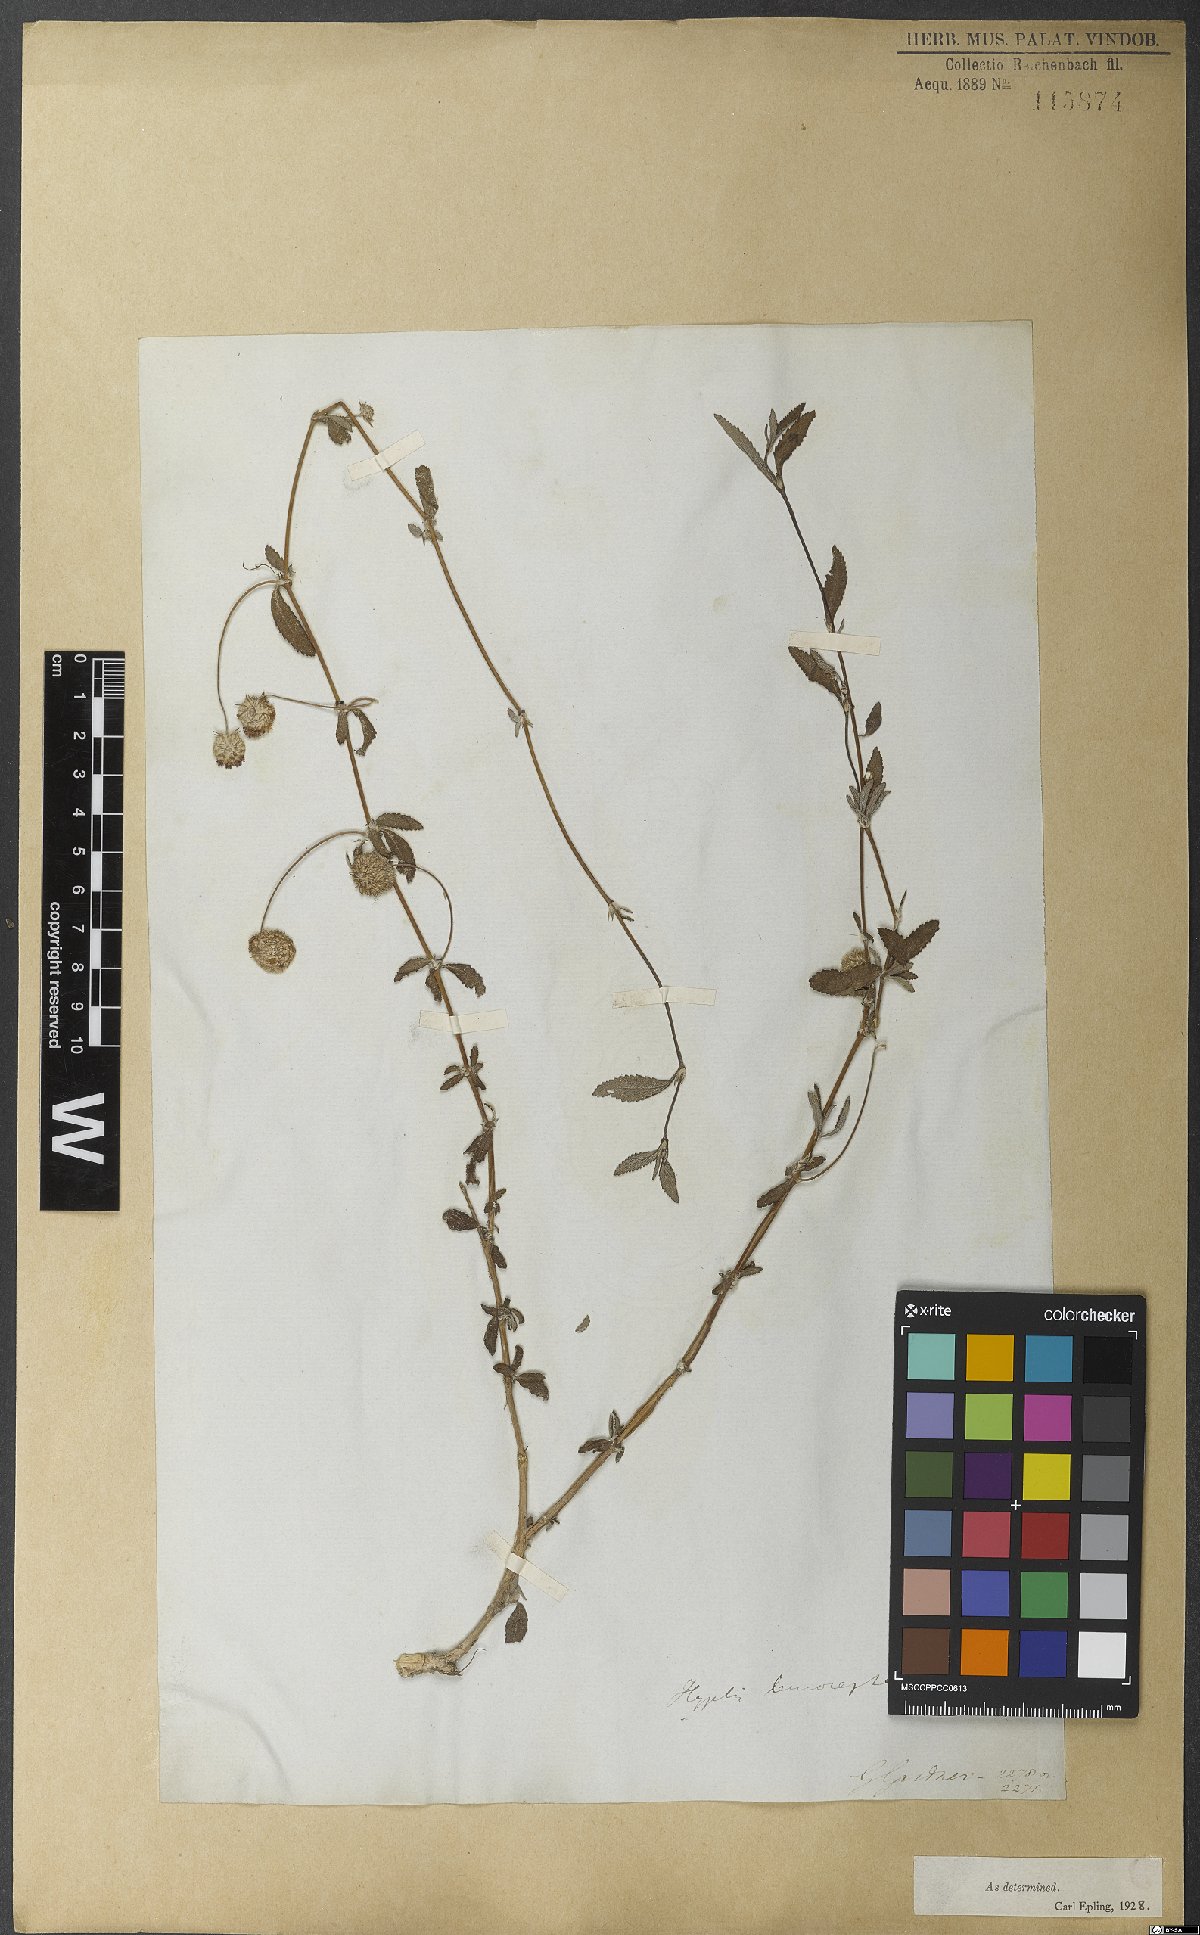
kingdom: Plantae
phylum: Tracheophyta
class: Magnoliopsida
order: Lamiales
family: Lamiaceae
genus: Martianthus
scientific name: Martianthus leucocephalus
